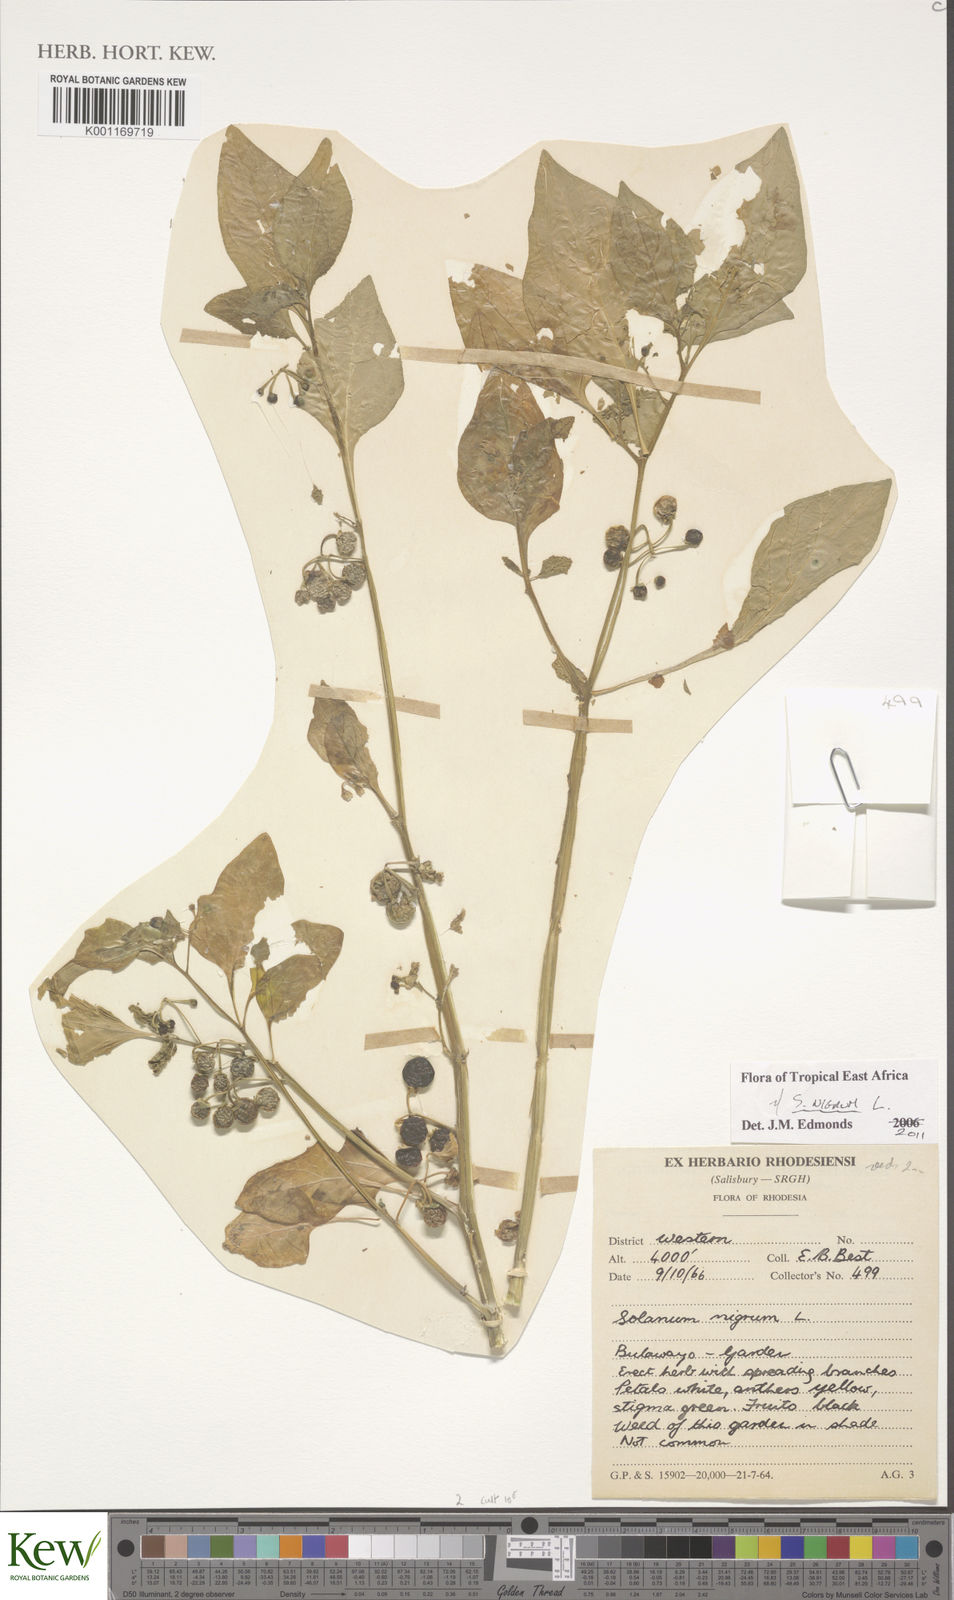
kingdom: Plantae
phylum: Tracheophyta
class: Magnoliopsida
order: Solanales
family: Solanaceae
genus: Solanum
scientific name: Solanum retroflexum
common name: Wonderberry
